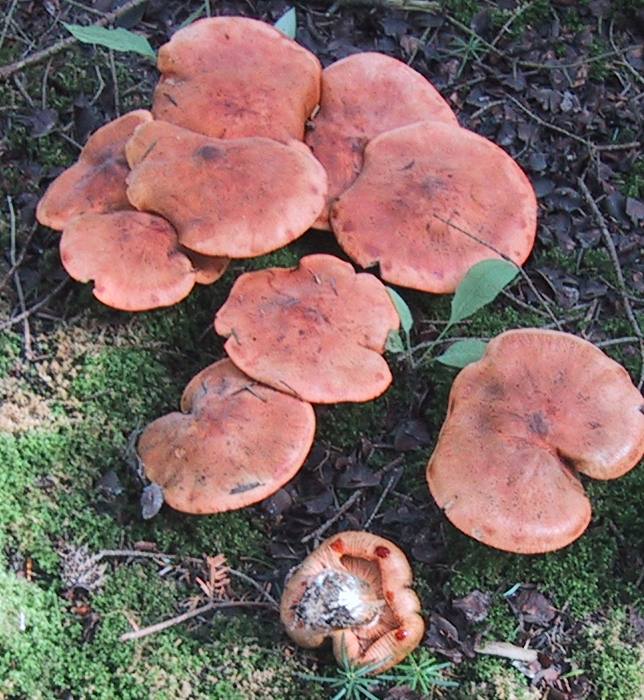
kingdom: Fungi
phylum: Basidiomycota
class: Agaricomycetes
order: Agaricales
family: Tricholomataceae
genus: Tricholoma
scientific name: Tricholoma aurantium
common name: orangegul ridderhat
